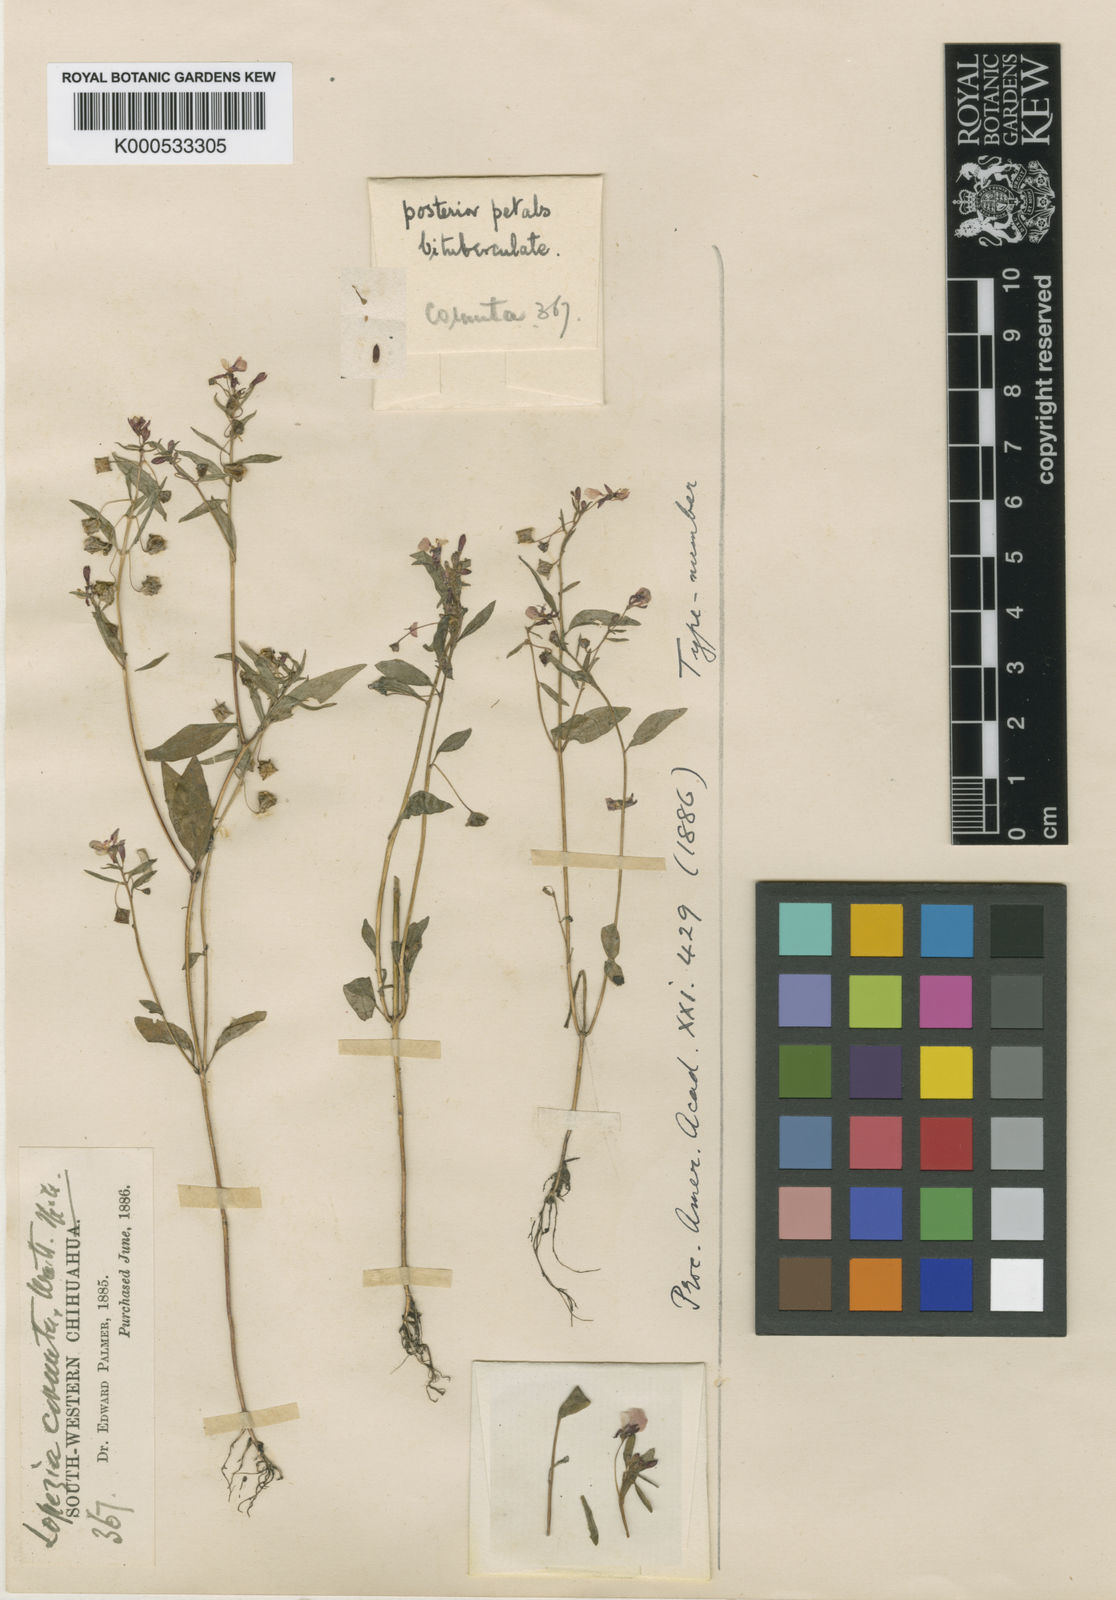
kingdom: Plantae
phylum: Tracheophyta
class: Magnoliopsida
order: Myrtales
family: Onagraceae
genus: Lopezia
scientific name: Lopezia cornuta
